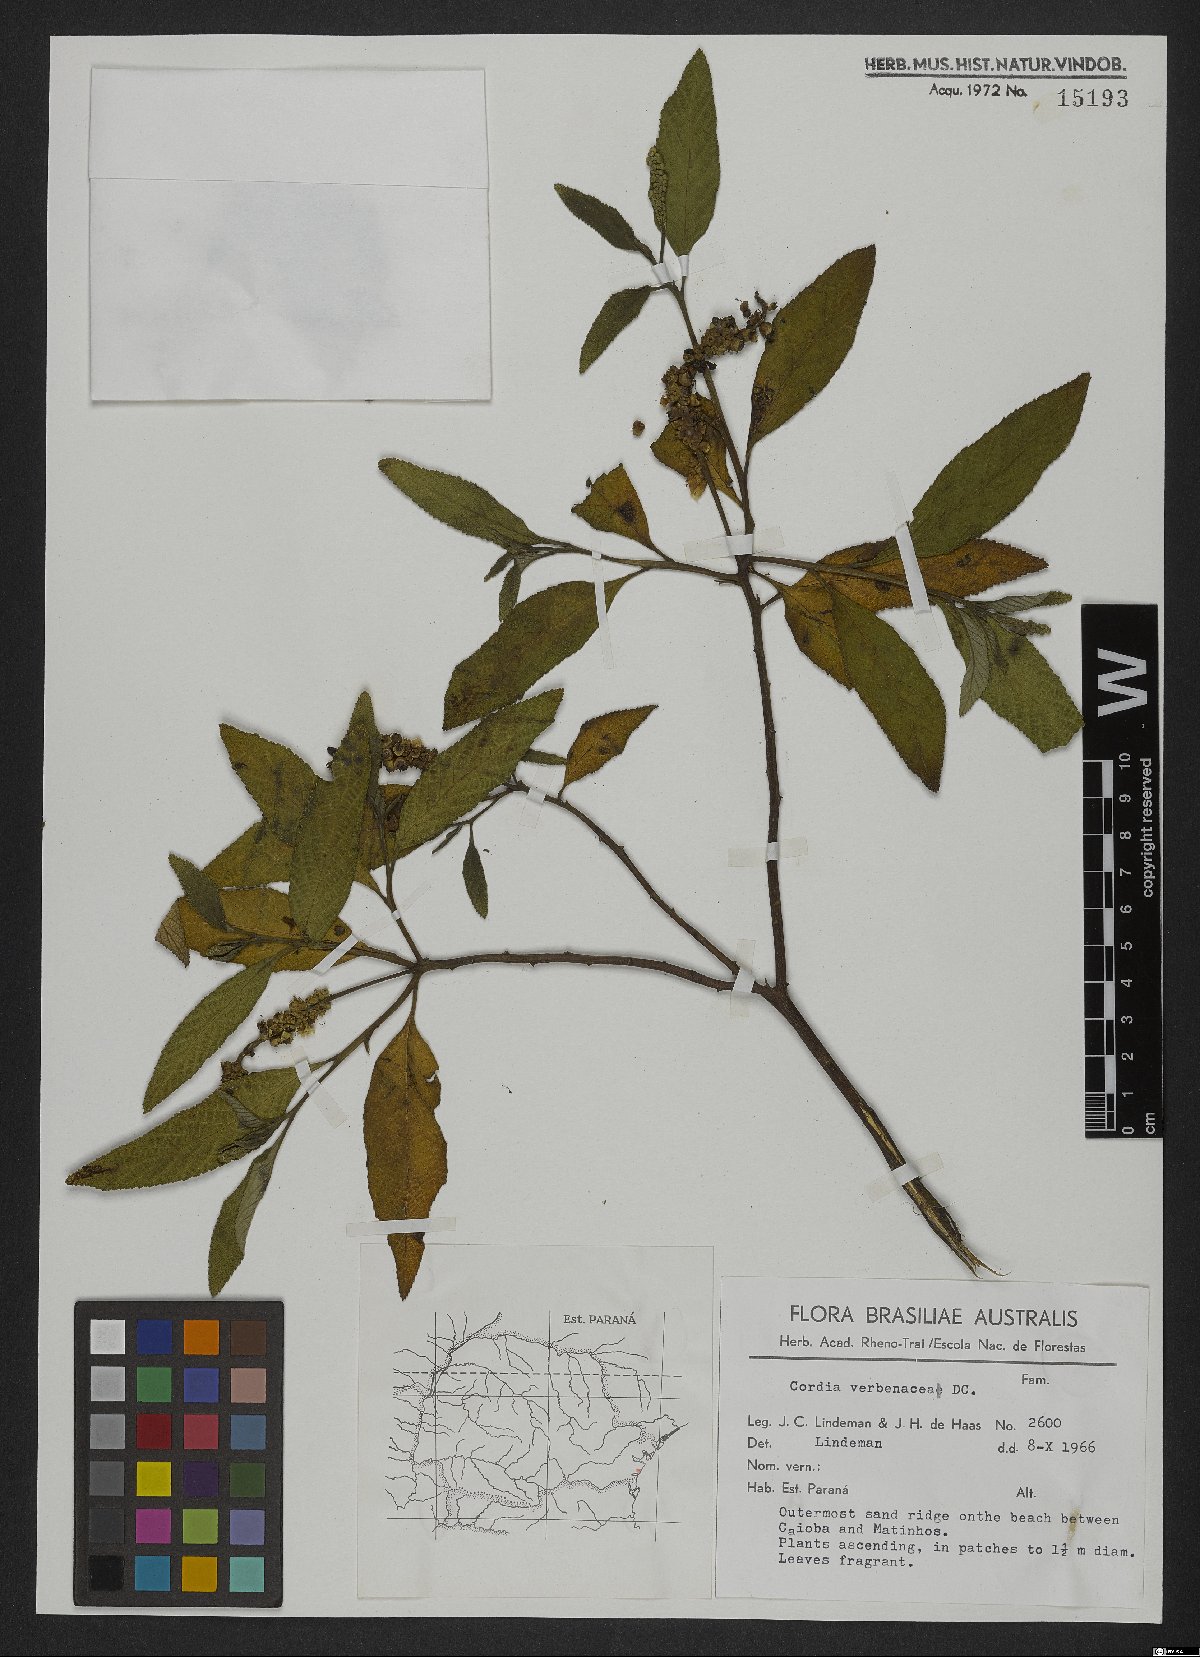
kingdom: Plantae
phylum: Tracheophyta
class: Magnoliopsida
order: Boraginales
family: Cordiaceae
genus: Varronia
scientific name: Varronia curassavica
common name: Black sage
